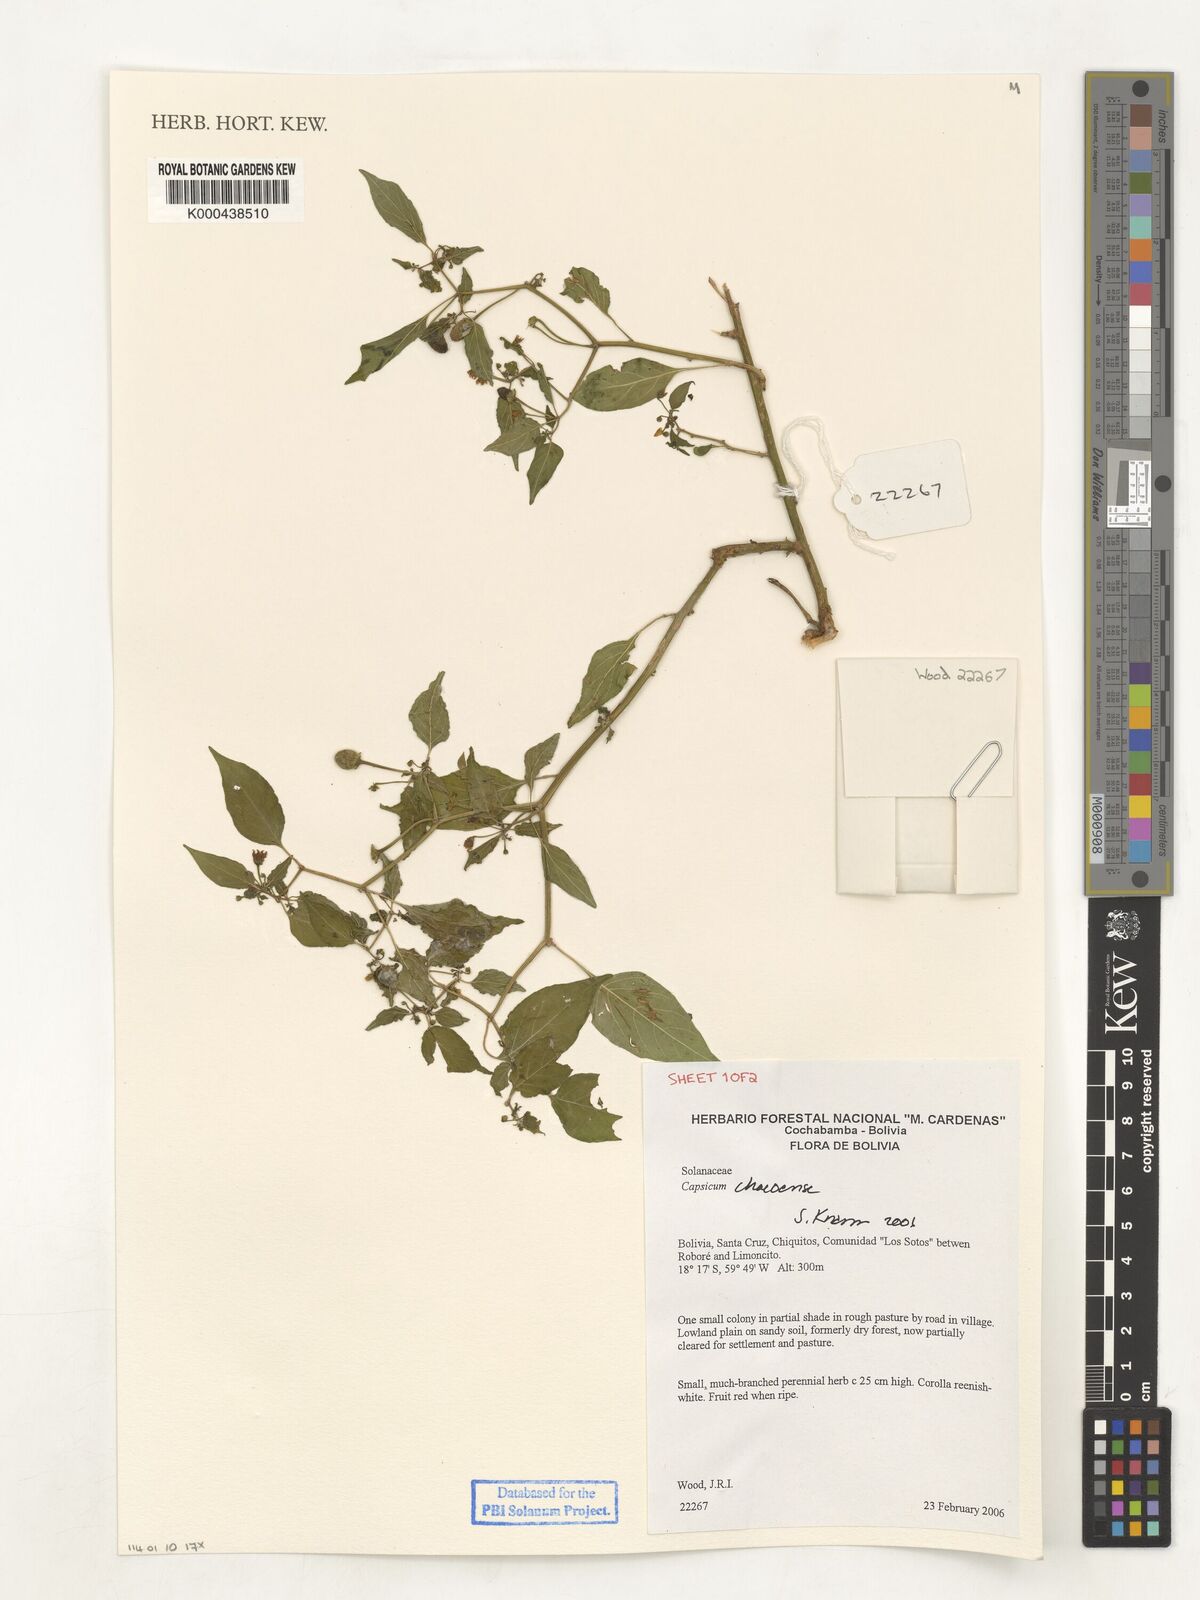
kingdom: Plantae
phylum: Tracheophyta
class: Magnoliopsida
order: Solanales
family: Solanaceae
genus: Capsicum
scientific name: Capsicum chacoense
